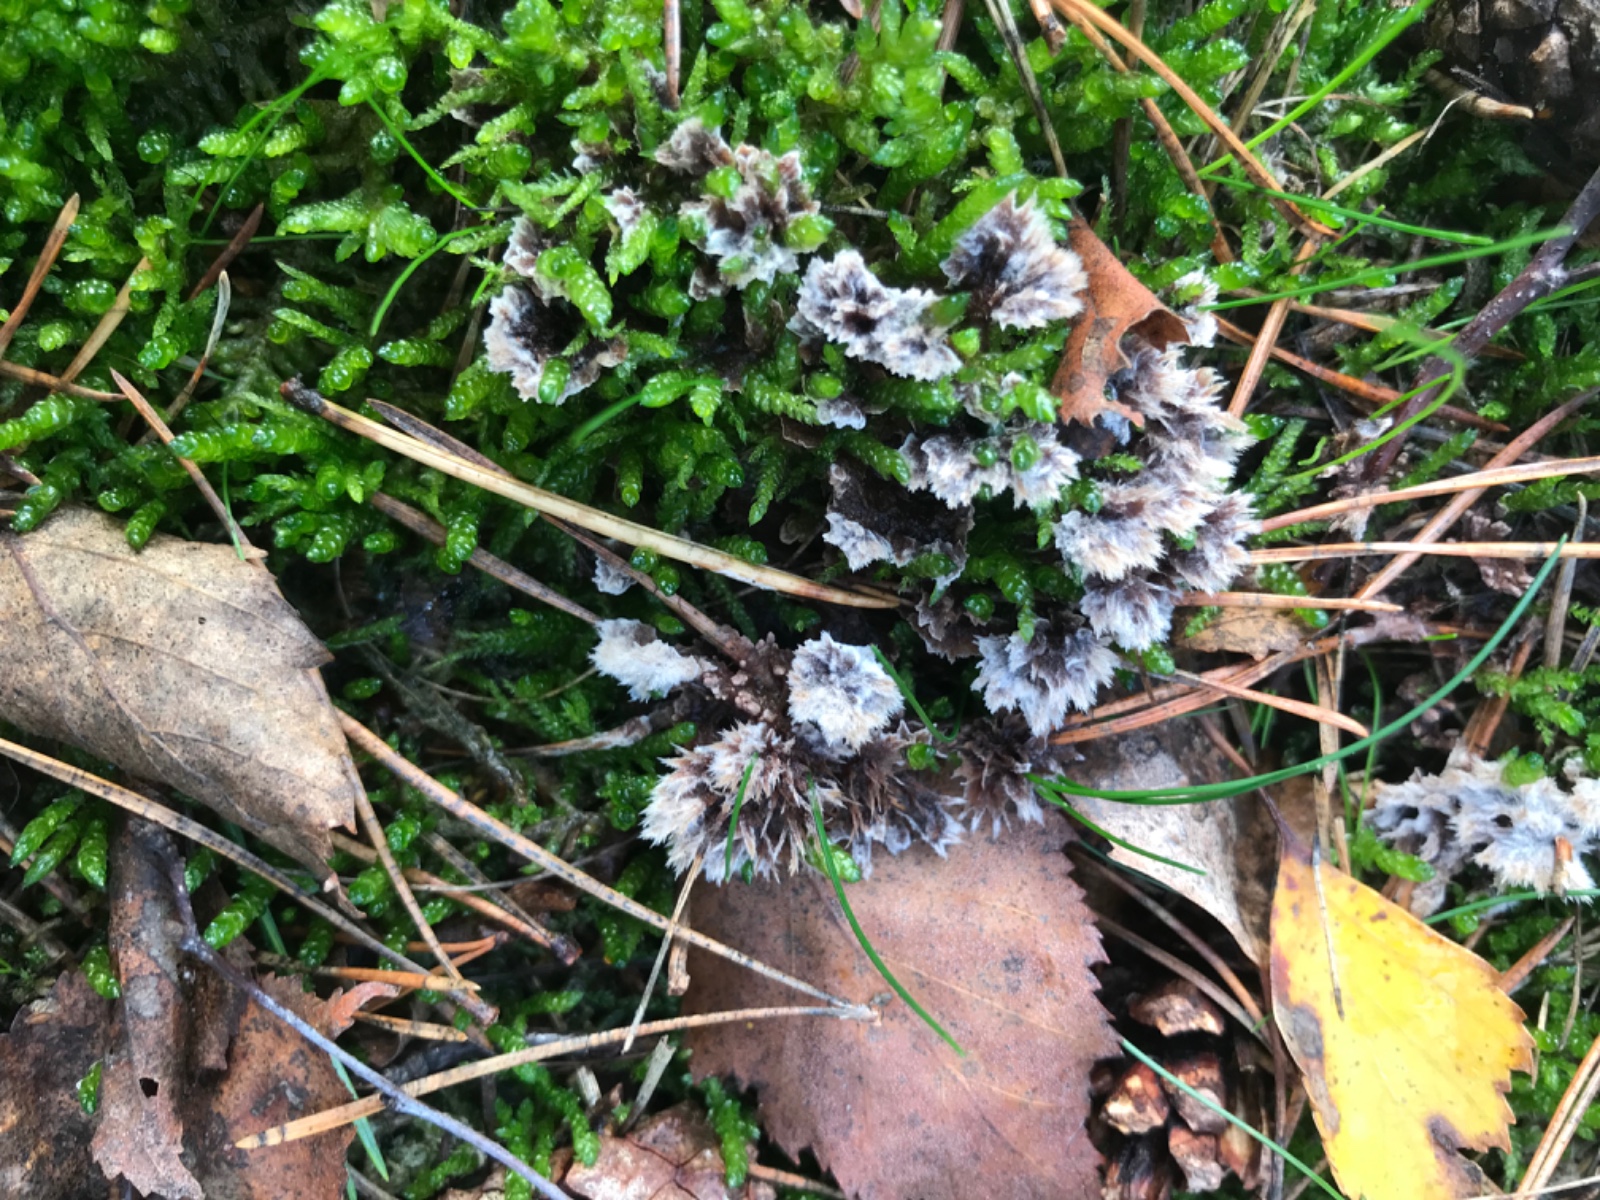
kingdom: Fungi
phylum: Basidiomycota
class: Agaricomycetes
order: Thelephorales
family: Thelephoraceae
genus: Thelephora
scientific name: Thelephora terrestris
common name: fliget frynsesvamp
